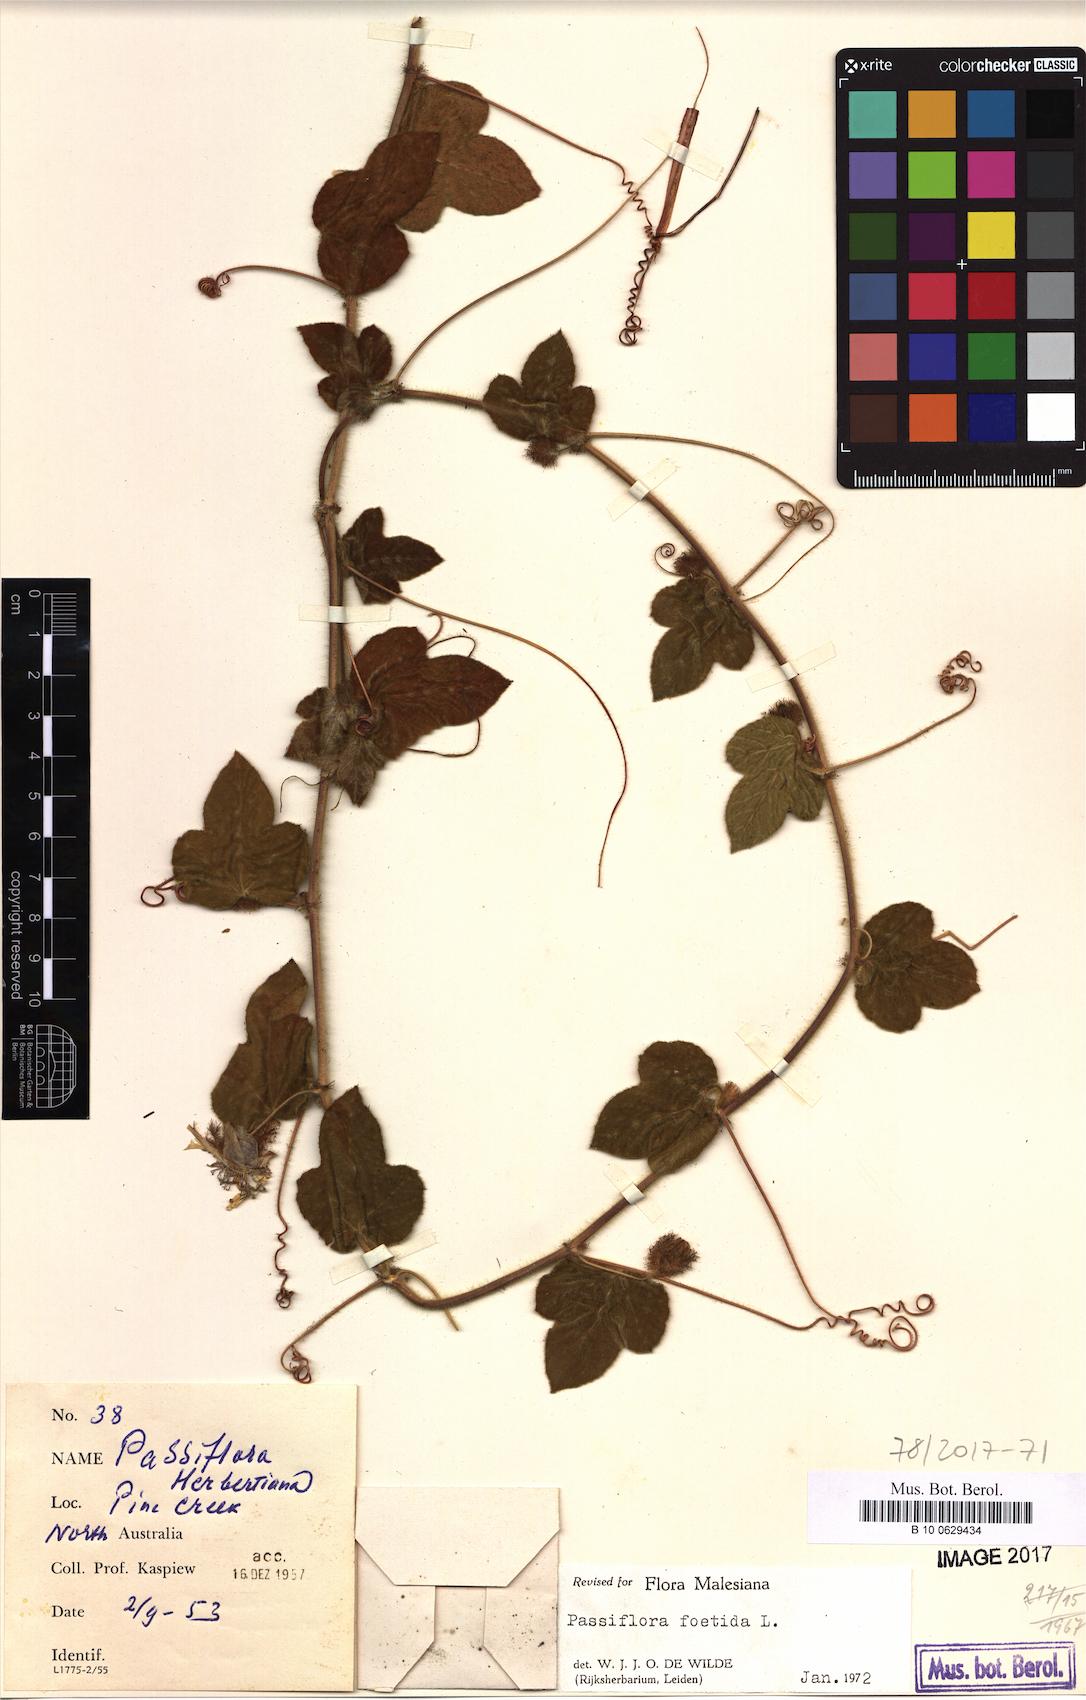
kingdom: Plantae
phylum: Tracheophyta
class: Magnoliopsida
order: Malpighiales
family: Passifloraceae
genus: Passiflora
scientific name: Passiflora foetida
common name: Fetid passionflower
